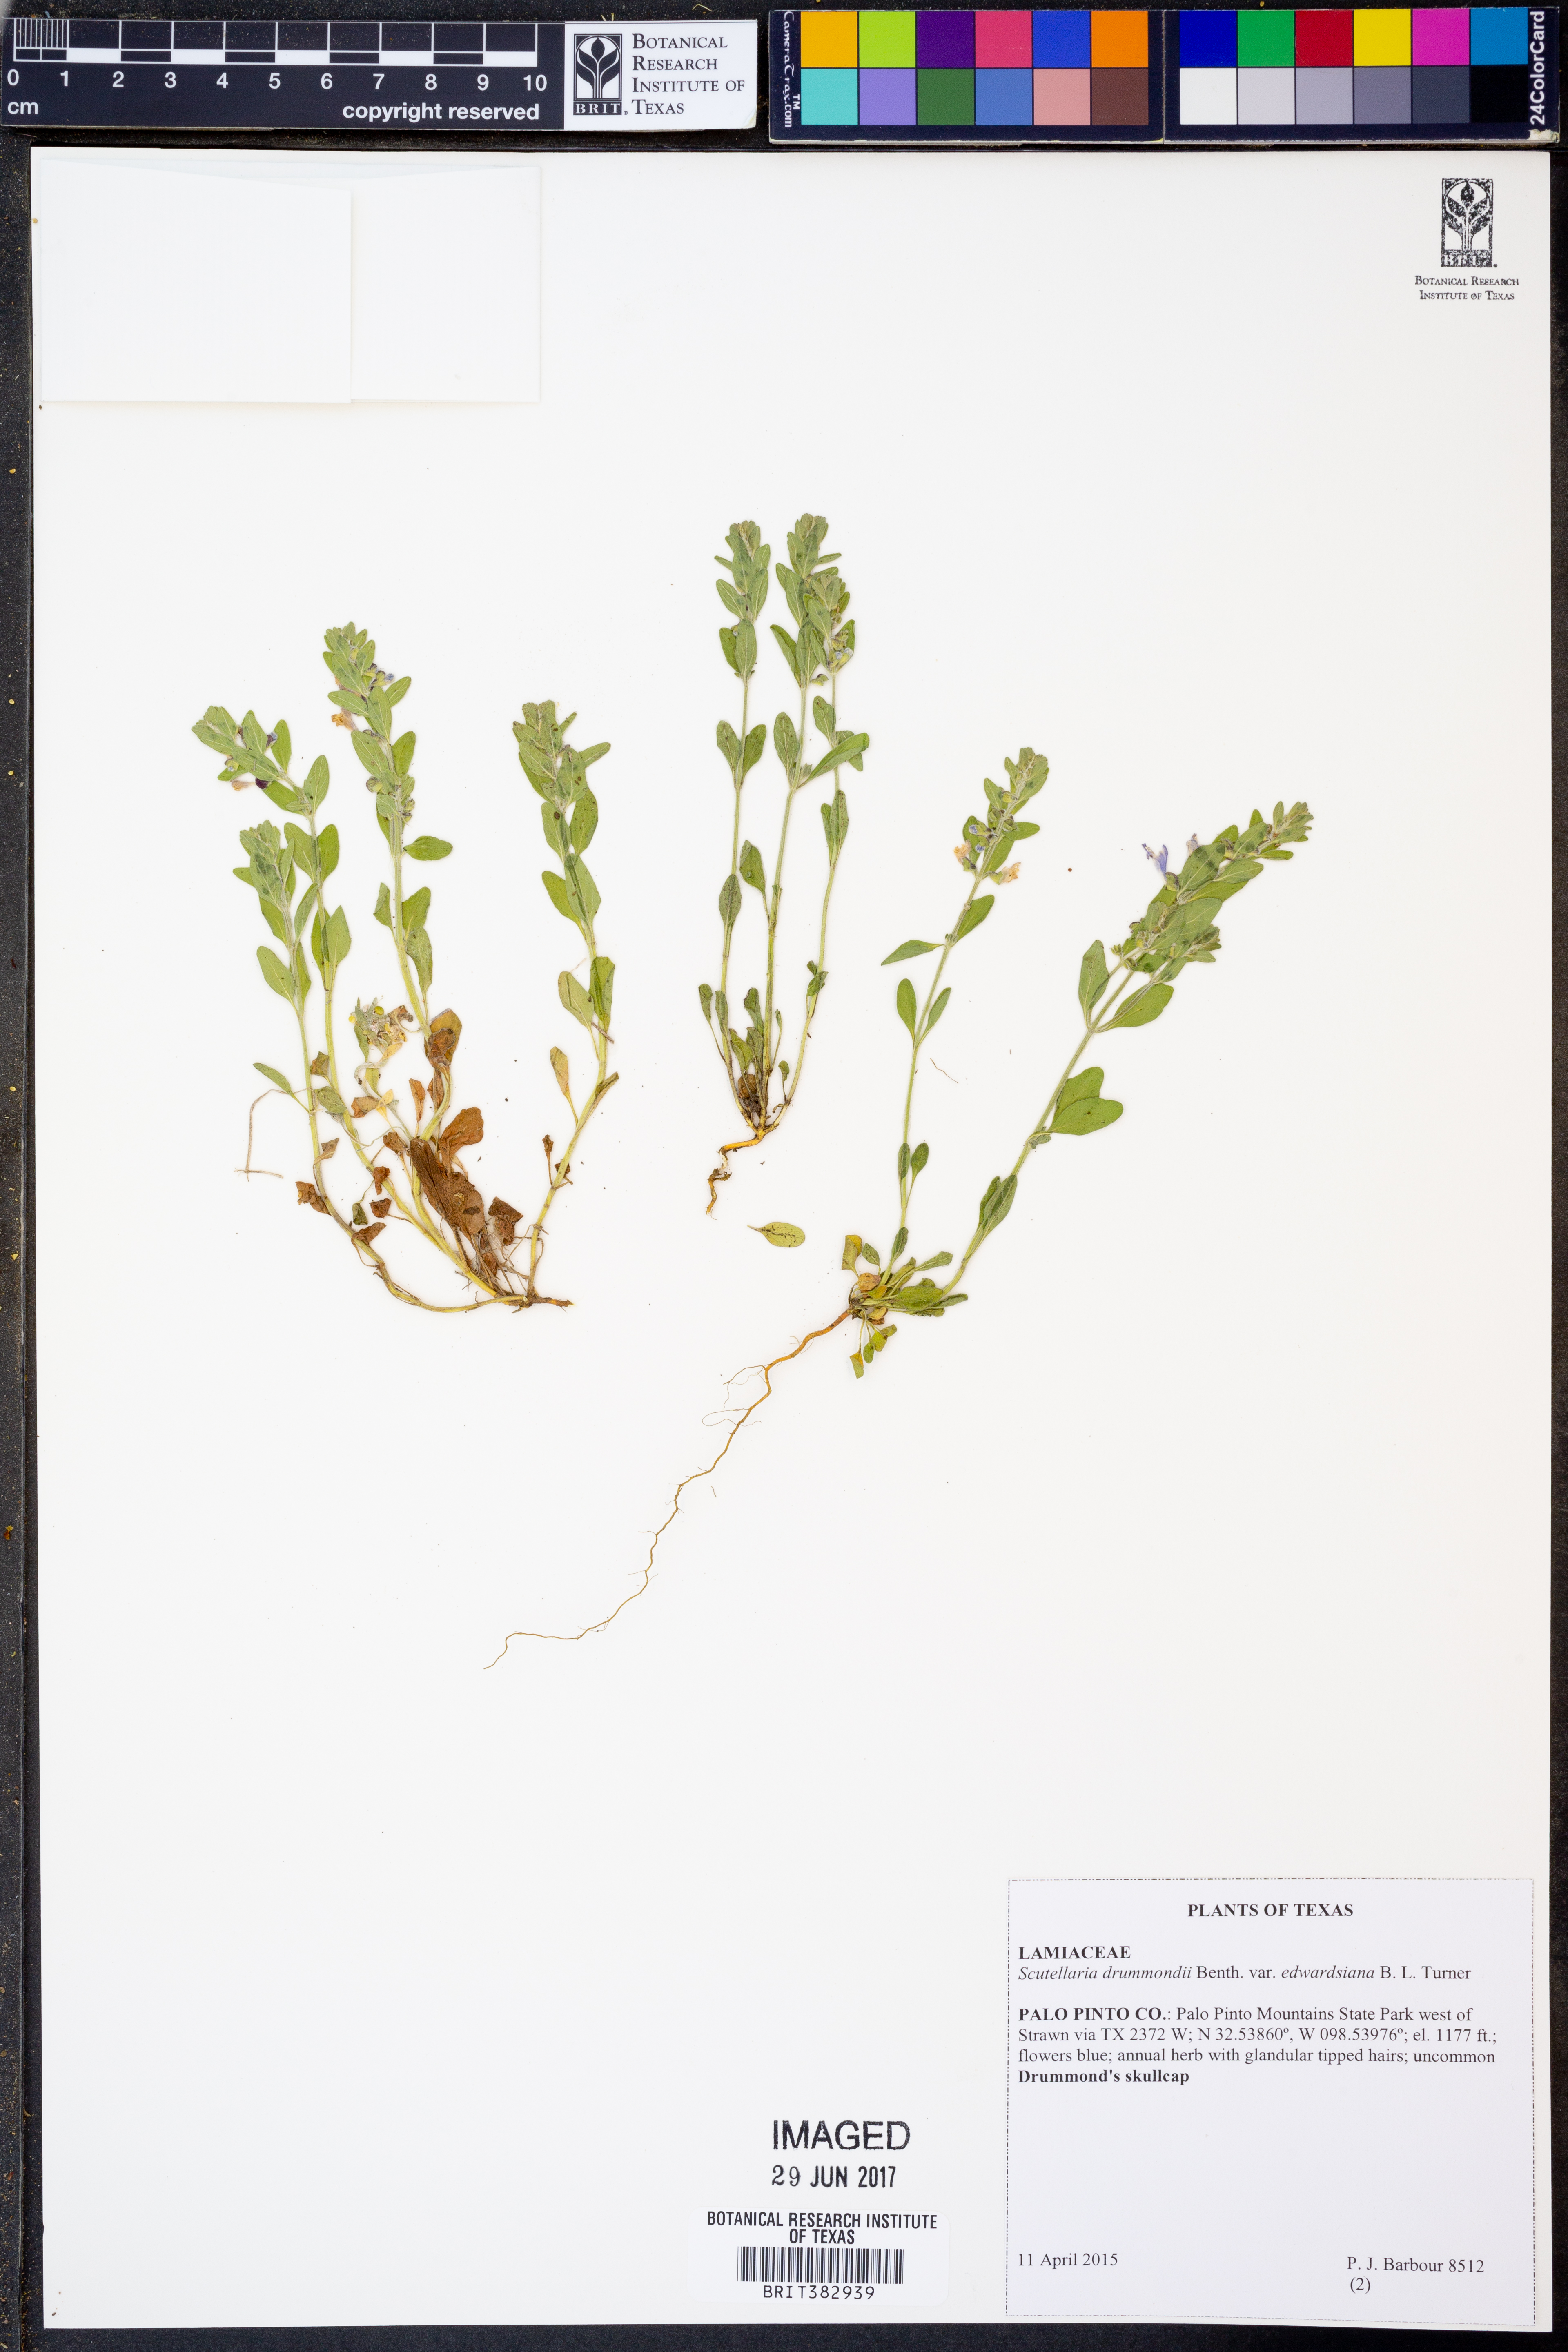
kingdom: Plantae
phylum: Tracheophyta
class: Magnoliopsida
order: Lamiales
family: Lamiaceae
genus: Scutellaria
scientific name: Scutellaria drummondii
